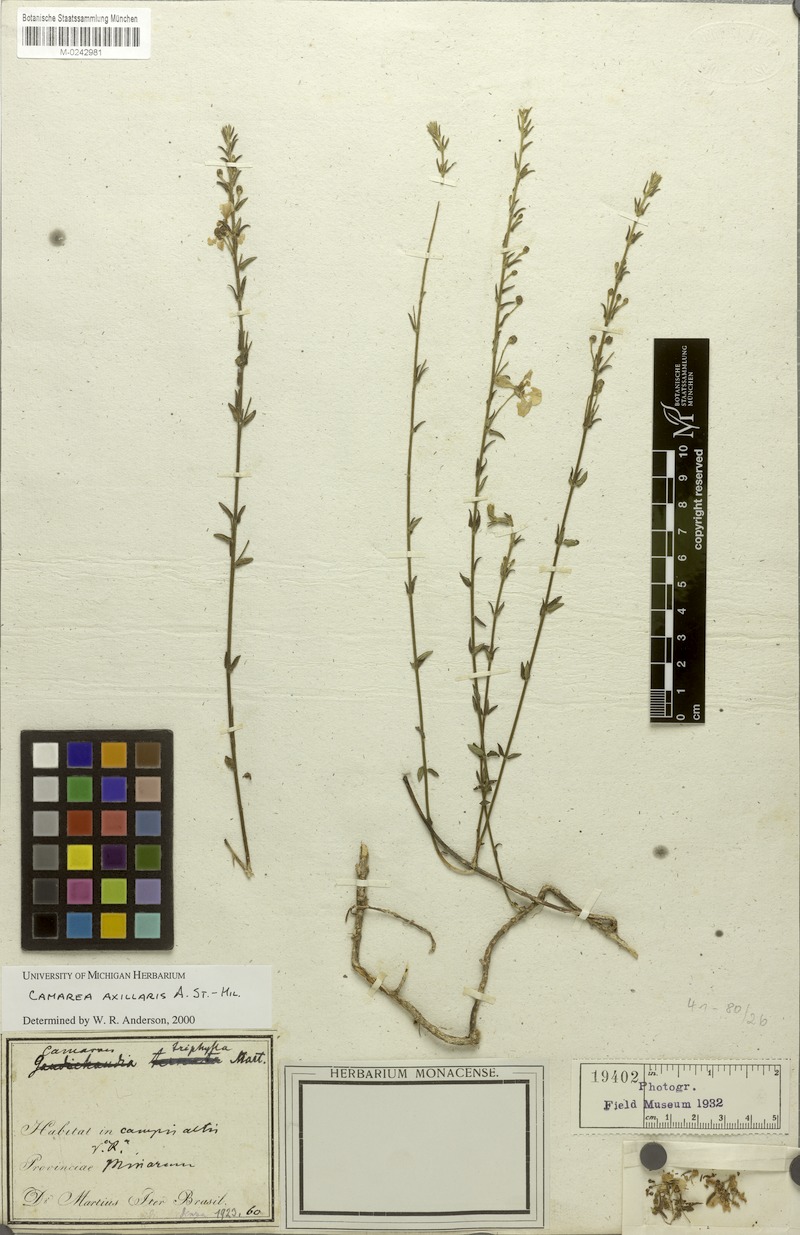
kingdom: Plantae
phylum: Tracheophyta
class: Magnoliopsida
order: Malpighiales
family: Malpighiaceae
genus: Camarea
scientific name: Camarea axillaris
